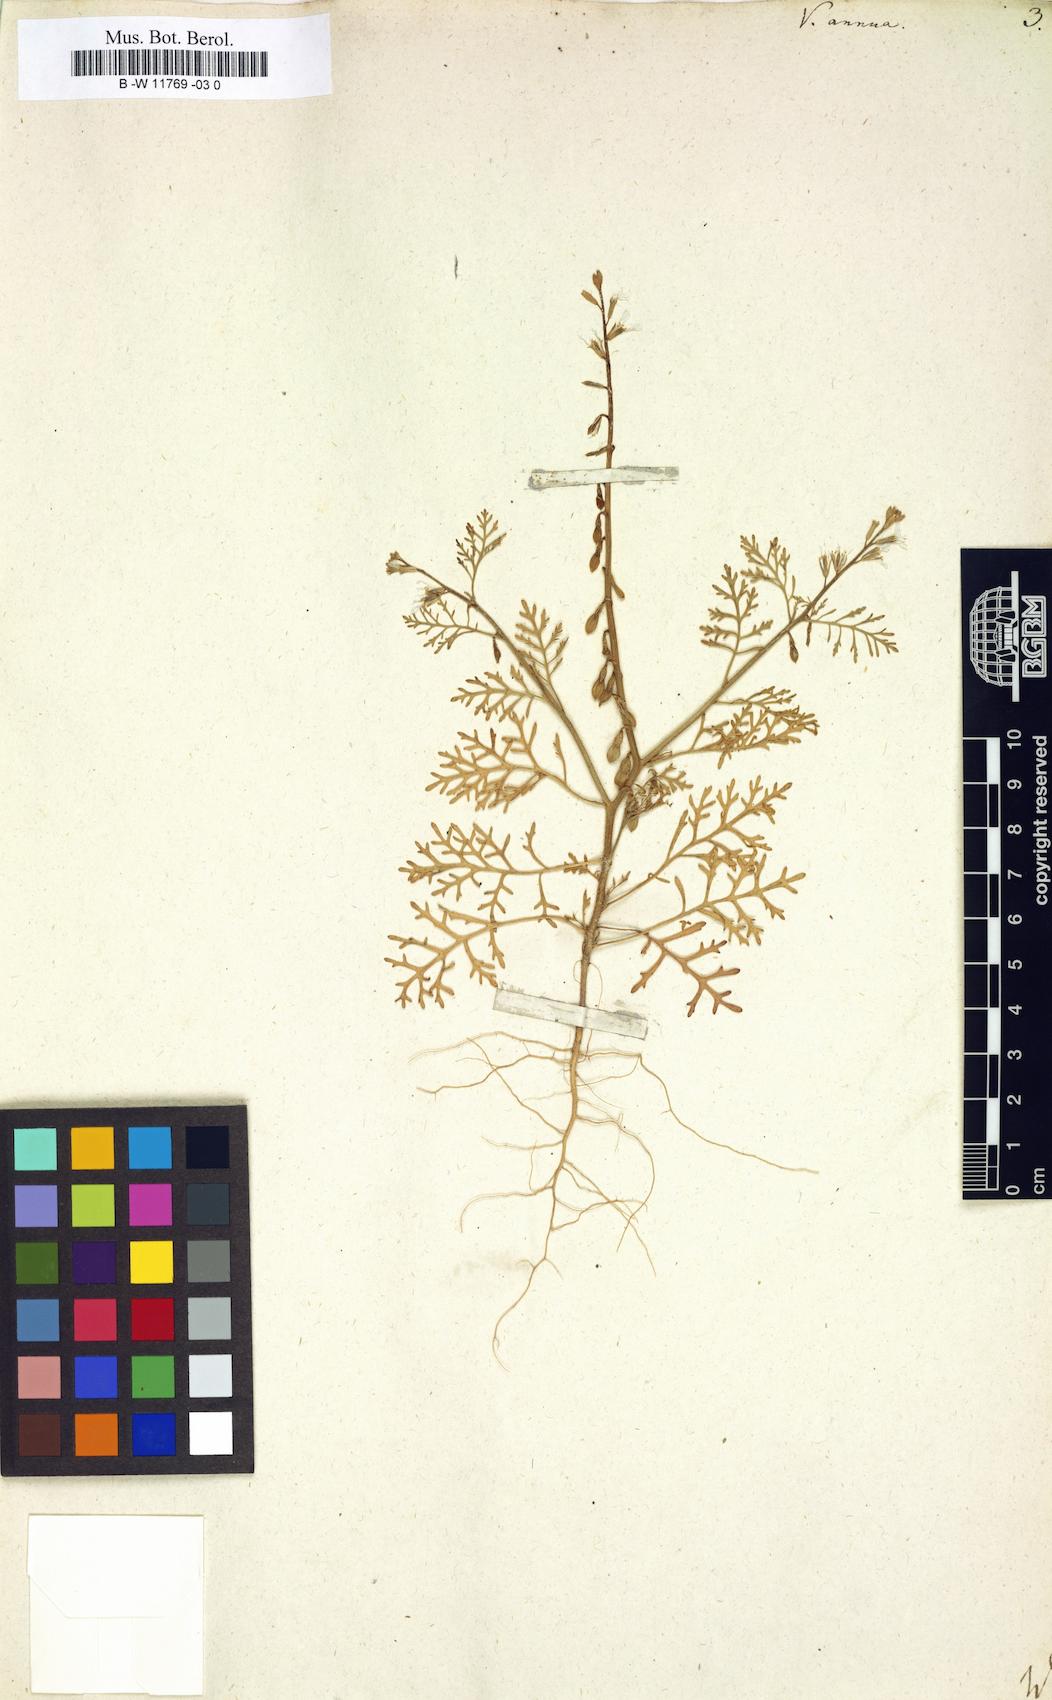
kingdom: Plantae
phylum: Tracheophyta
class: Magnoliopsida
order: Brassicales
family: Brassicaceae
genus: Carrichtera
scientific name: Carrichtera annua
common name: Cress rocket
